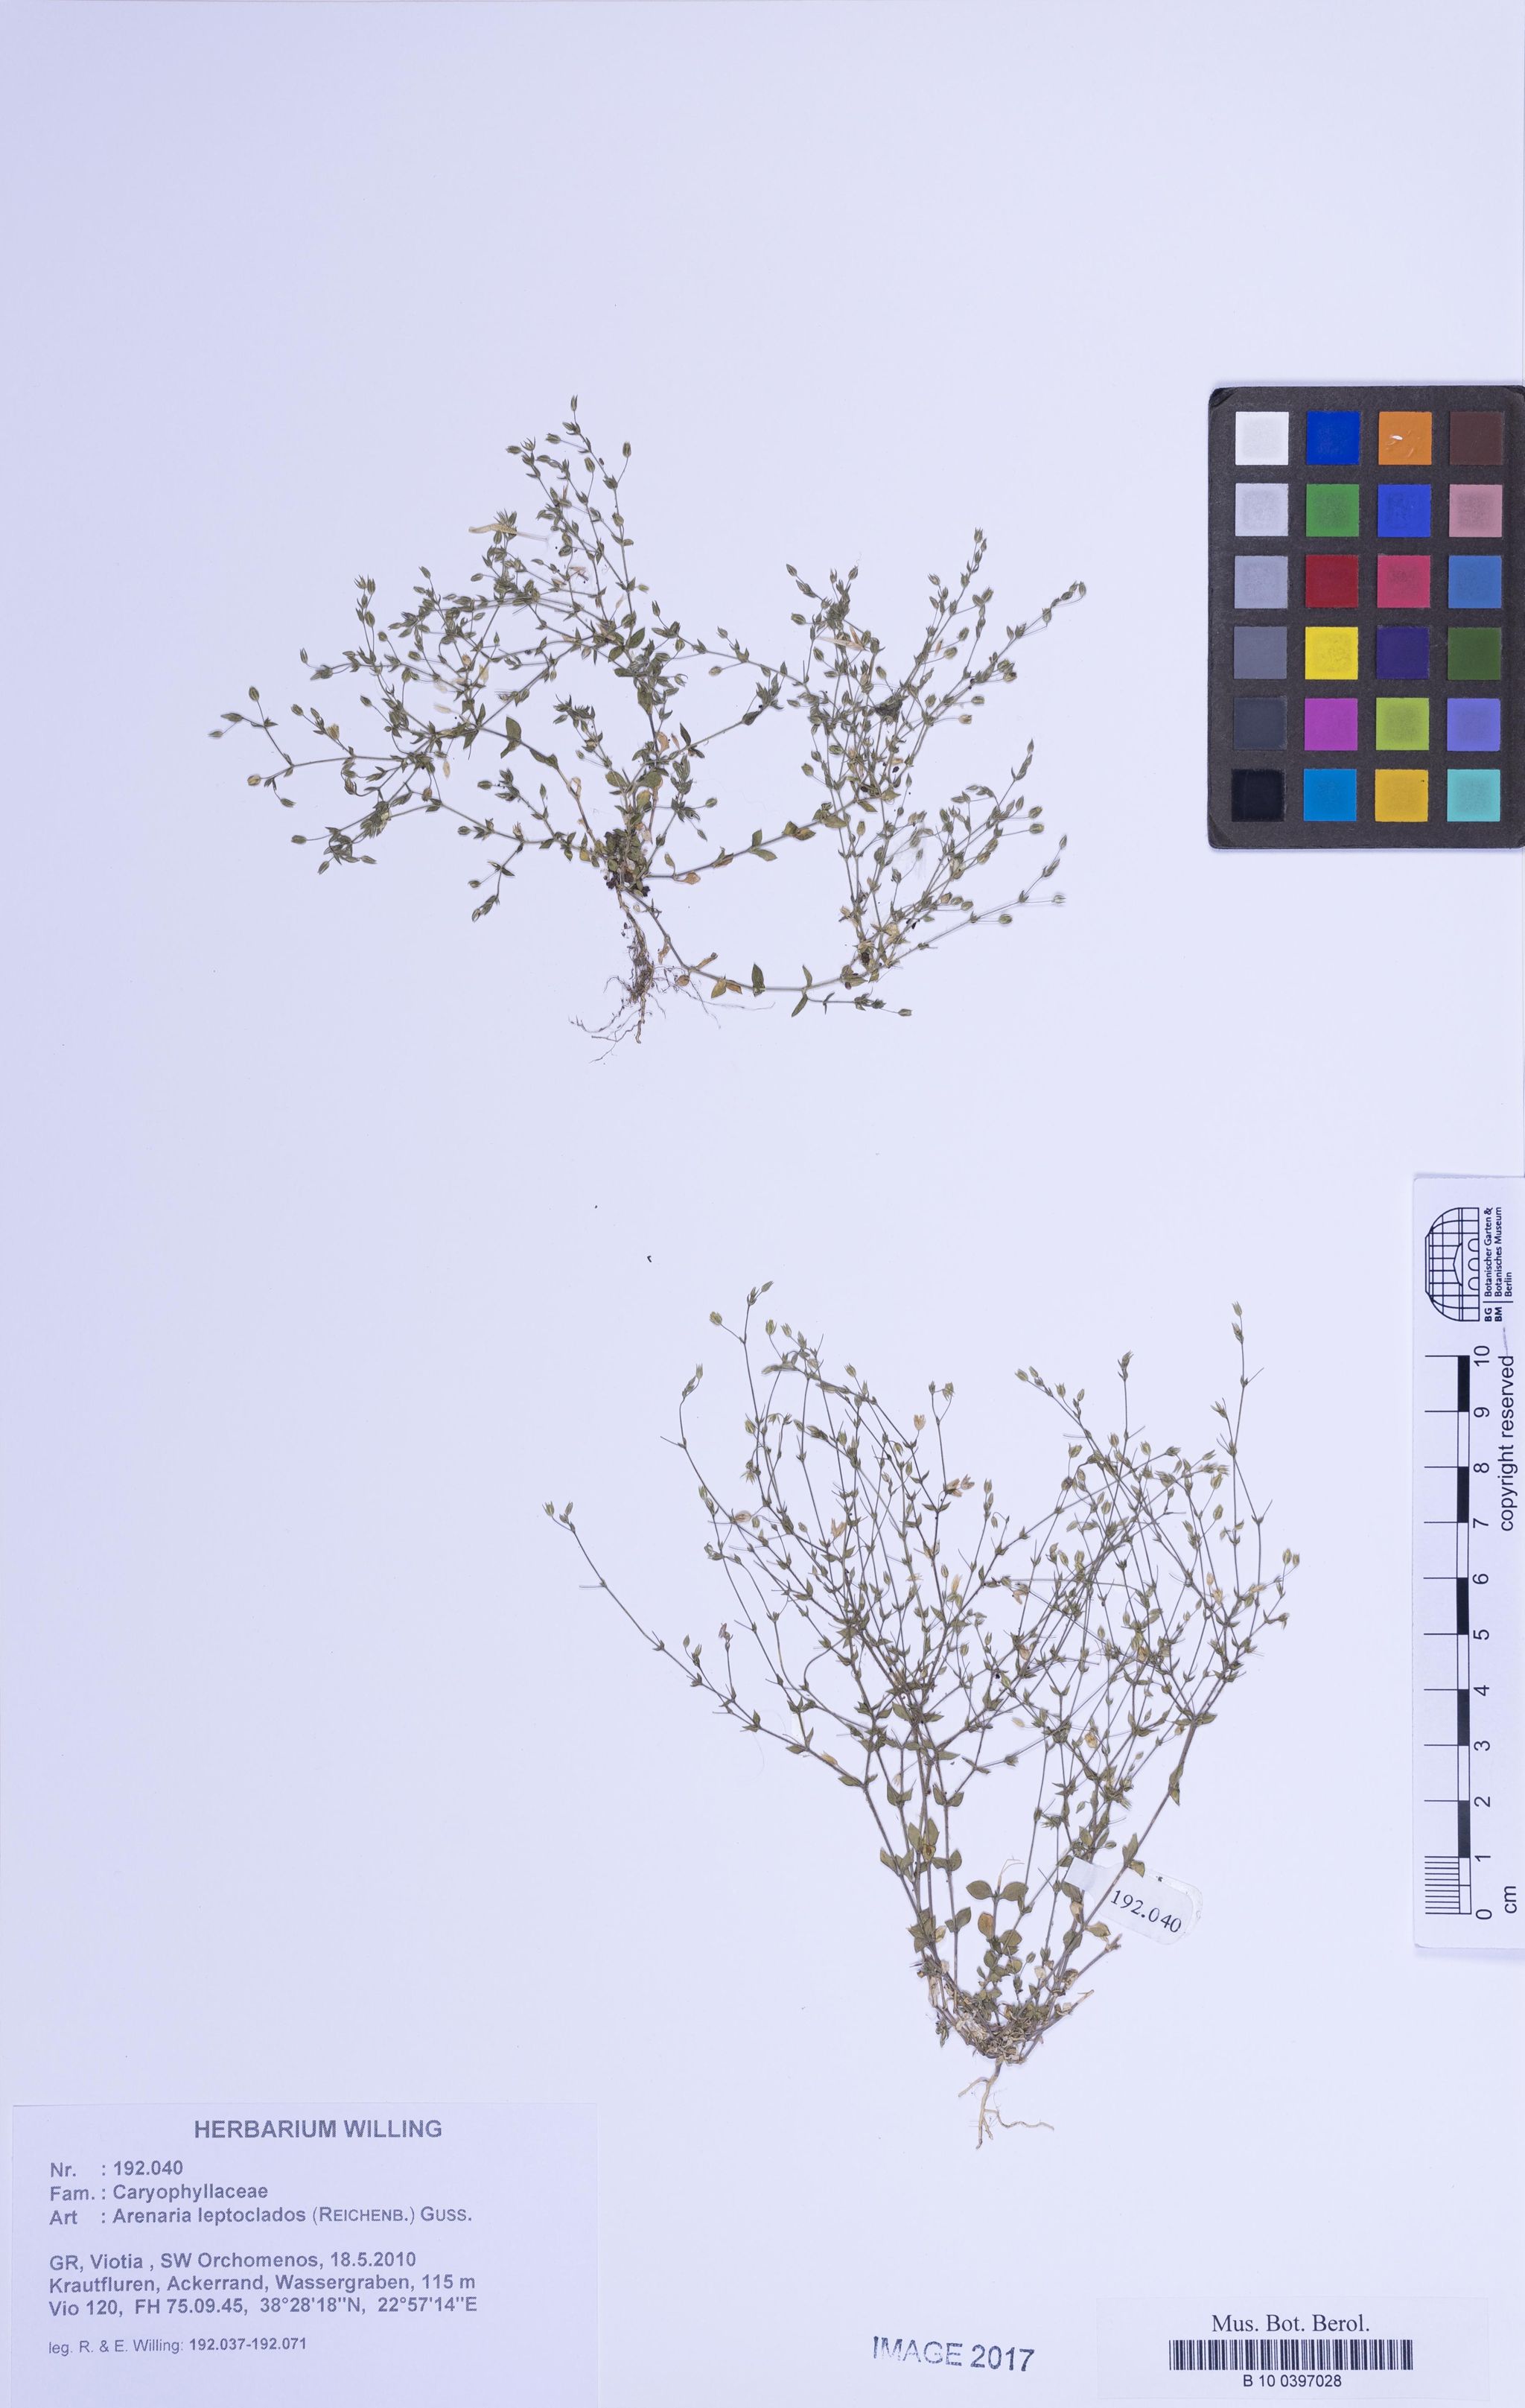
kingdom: Plantae
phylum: Tracheophyta
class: Magnoliopsida
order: Caryophyllales
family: Caryophyllaceae
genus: Arenaria
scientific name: Arenaria leptoclados
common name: Thyme-leaved sandwort
